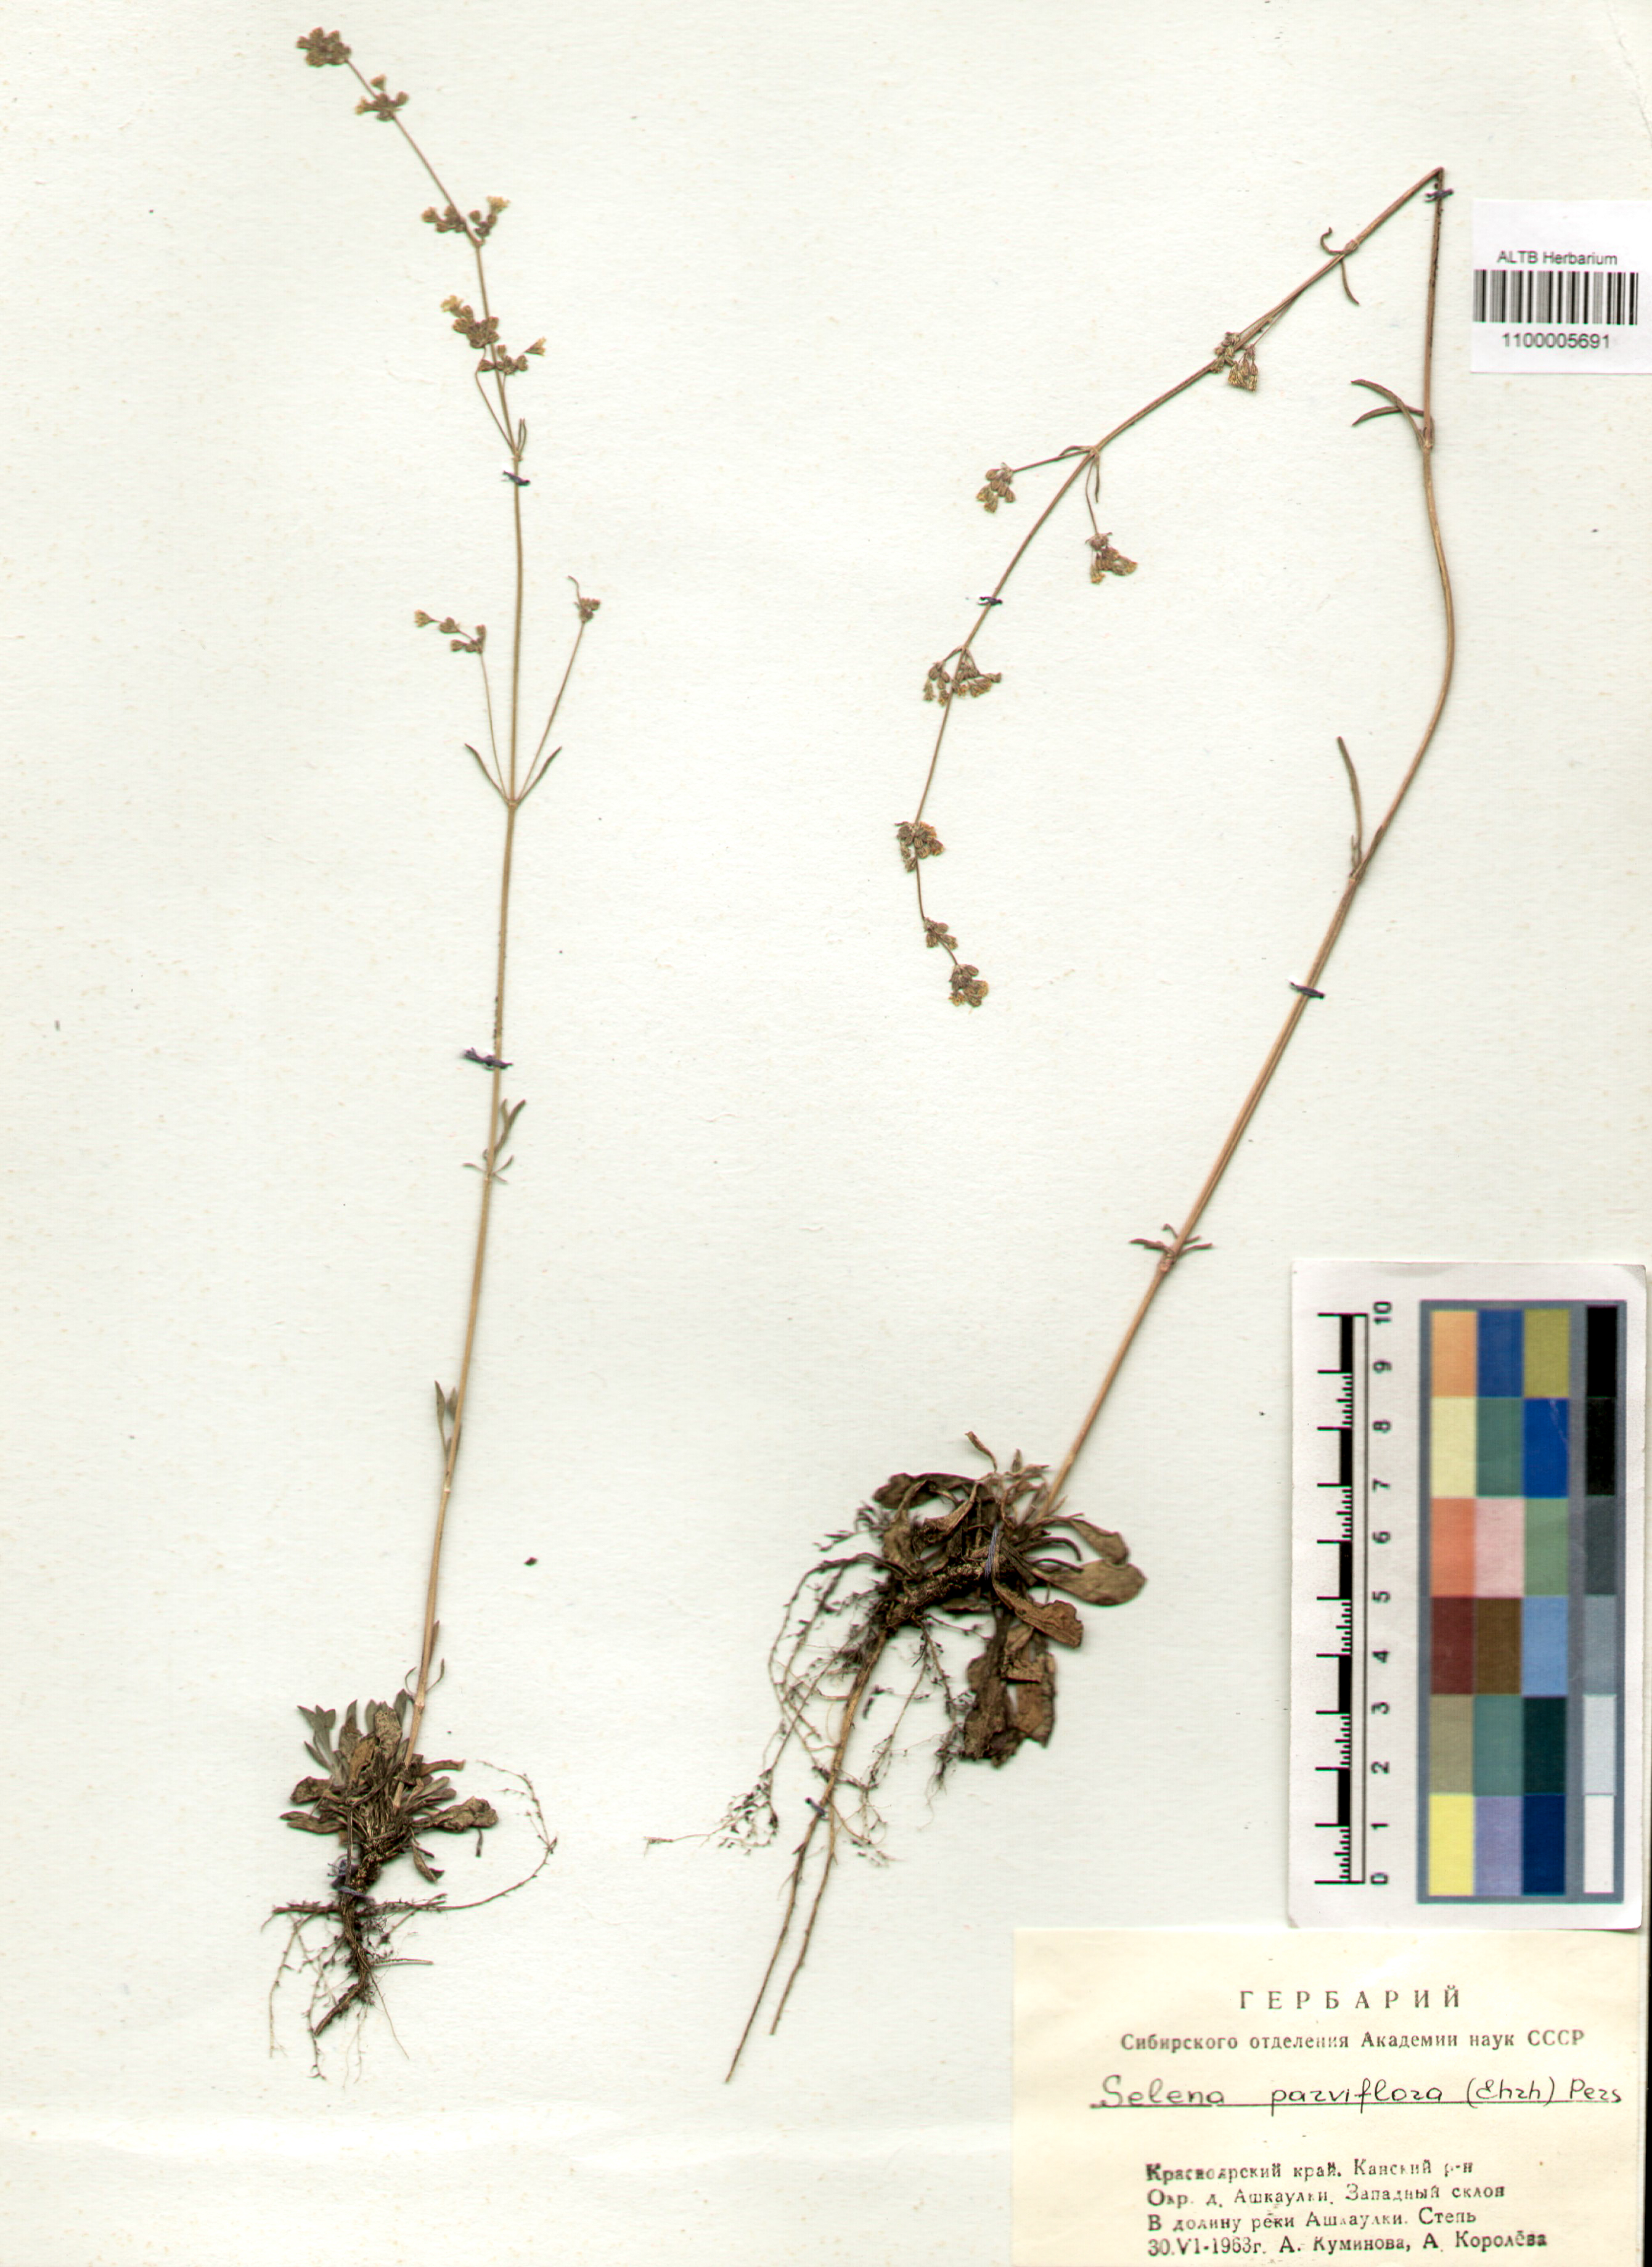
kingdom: Plantae
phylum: Tracheophyta
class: Magnoliopsida
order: Caryophyllales
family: Caryophyllaceae
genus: Silene
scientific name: Silene borysthenica
